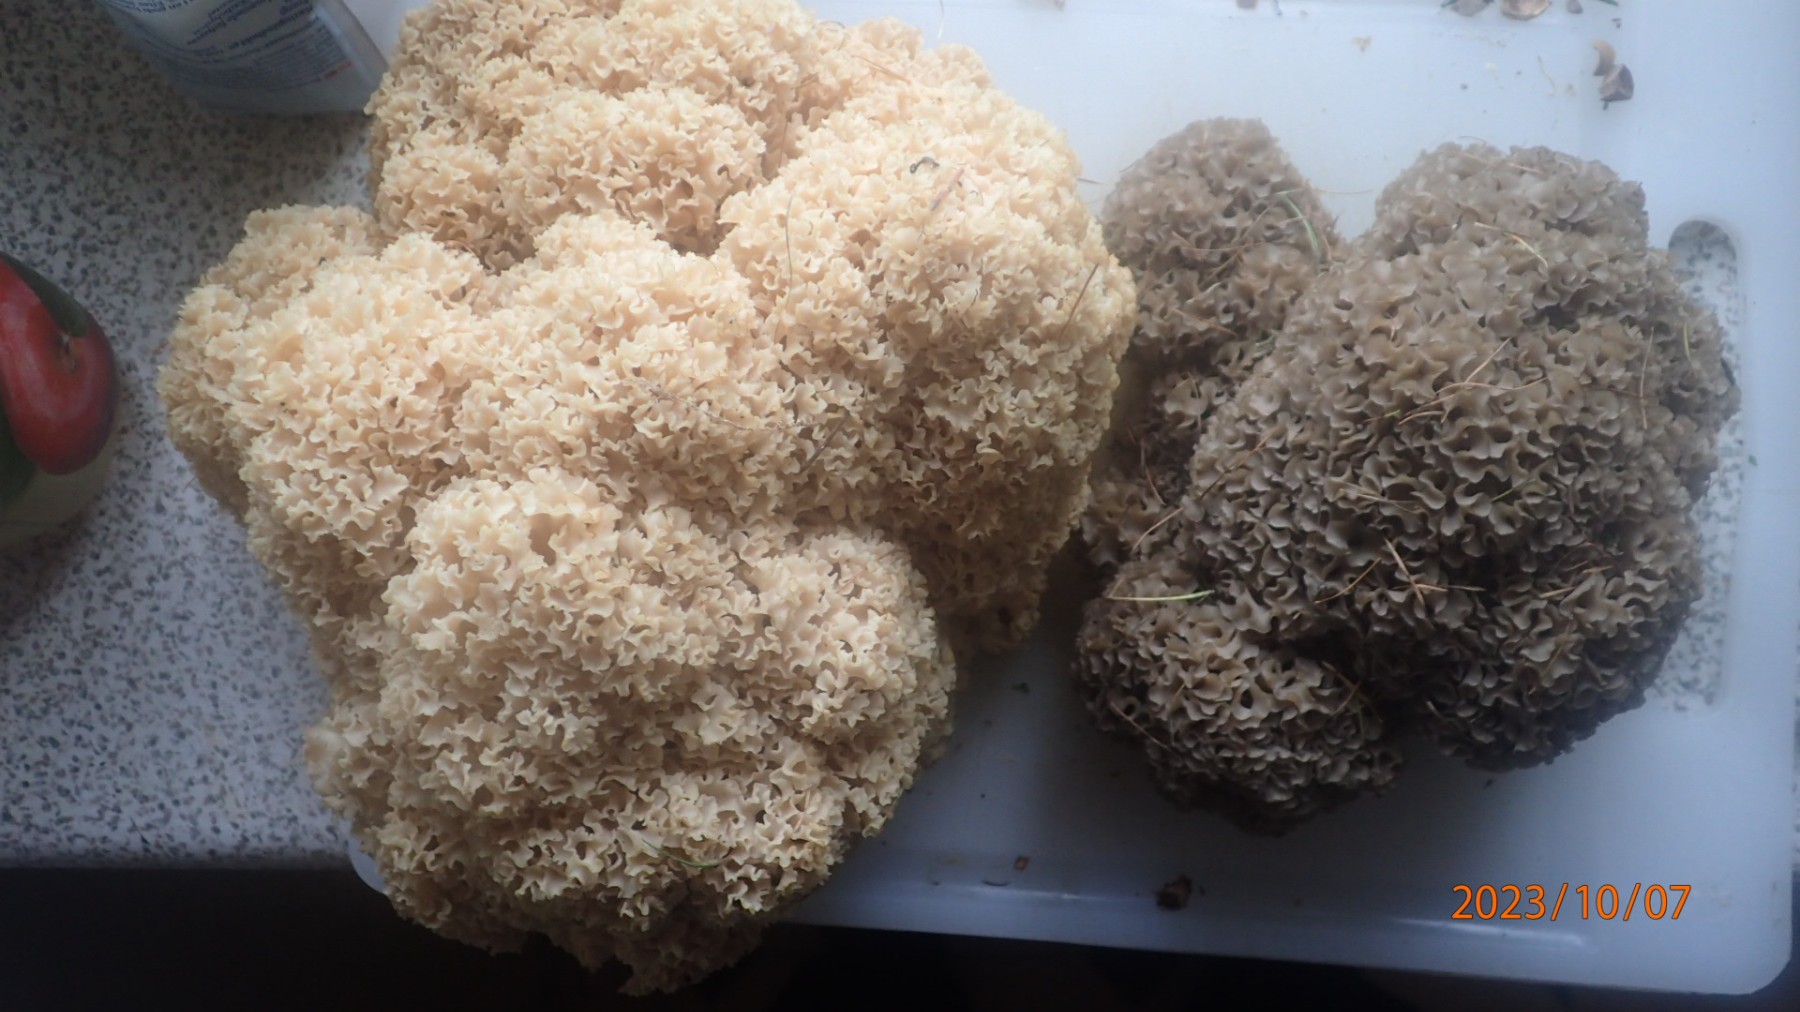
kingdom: Fungi
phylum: Basidiomycota
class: Agaricomycetes
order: Polyporales
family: Sparassidaceae
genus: Sparassis
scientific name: Sparassis crispa
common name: kruset blomkålssvamp
